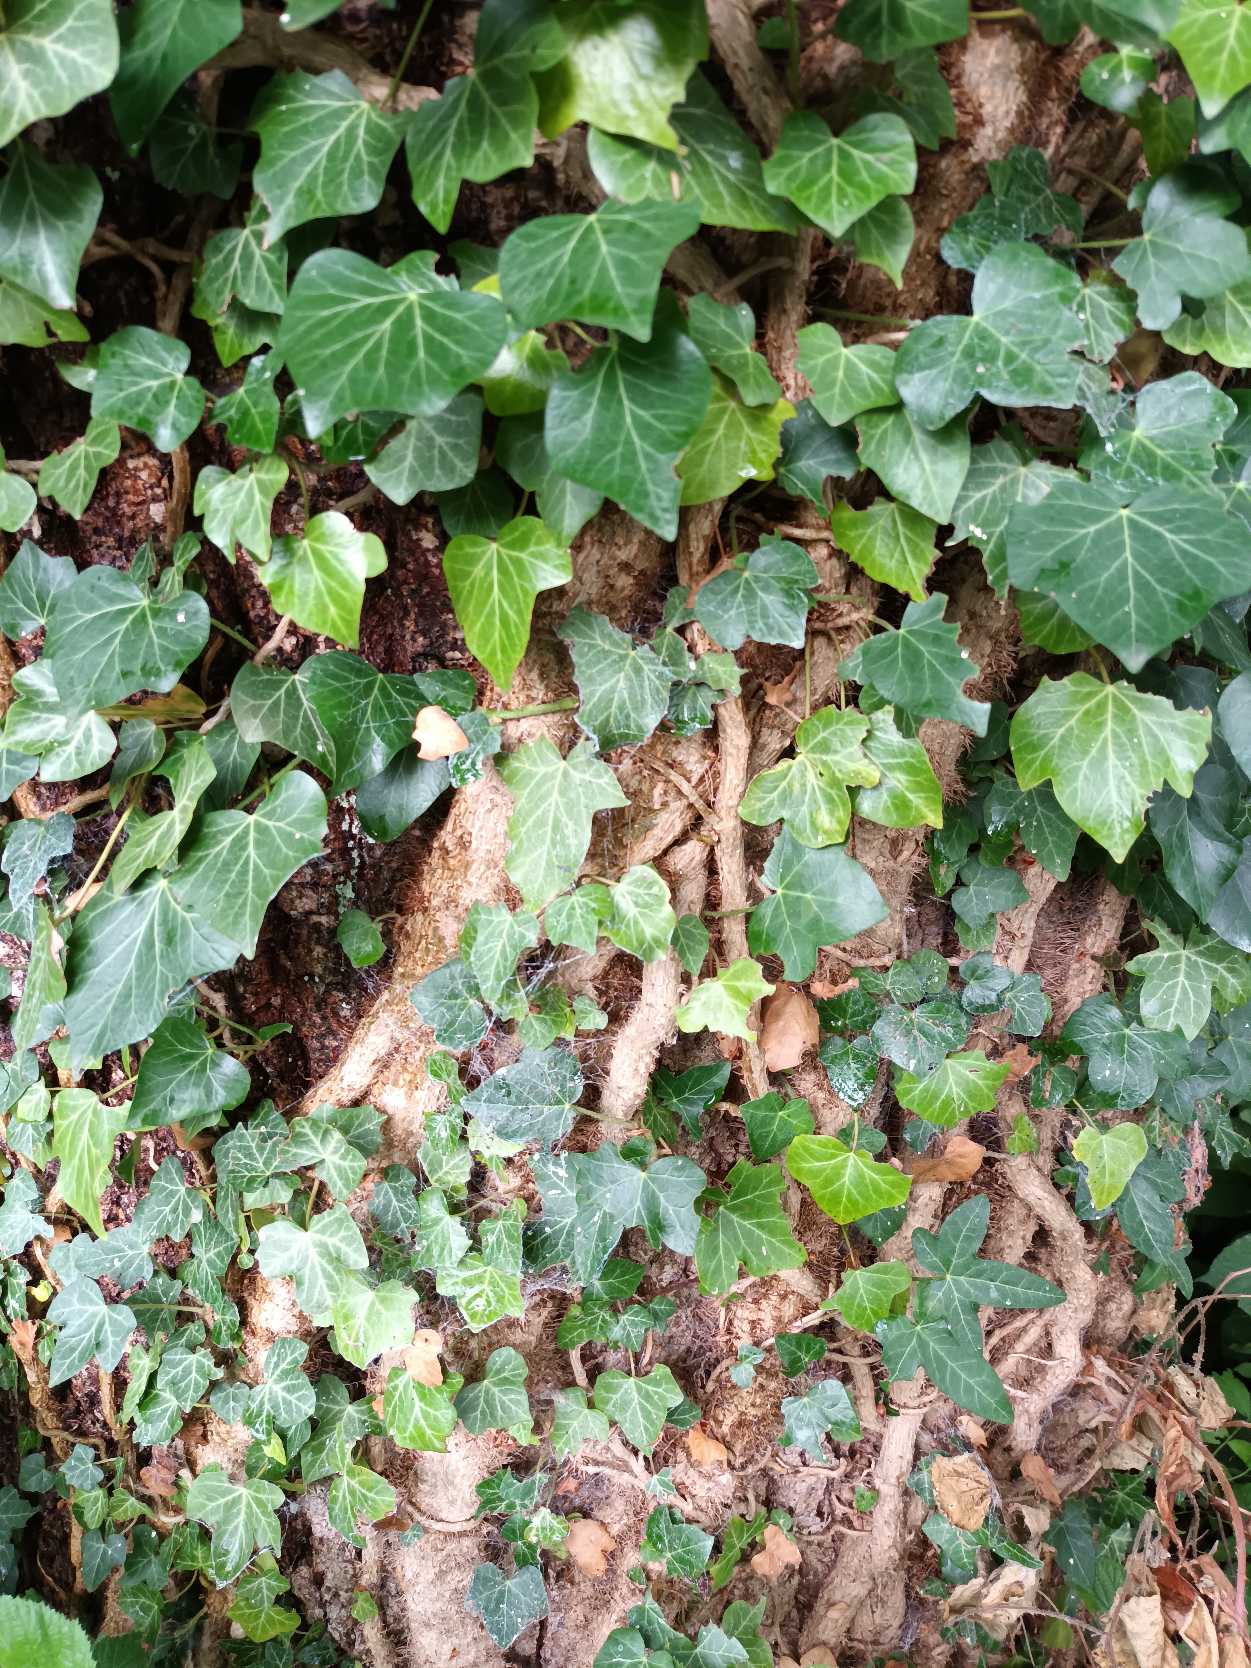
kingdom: Plantae
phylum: Tracheophyta
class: Magnoliopsida
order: Apiales
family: Araliaceae
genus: Hedera
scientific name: Hedera helix
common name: Vedbend
